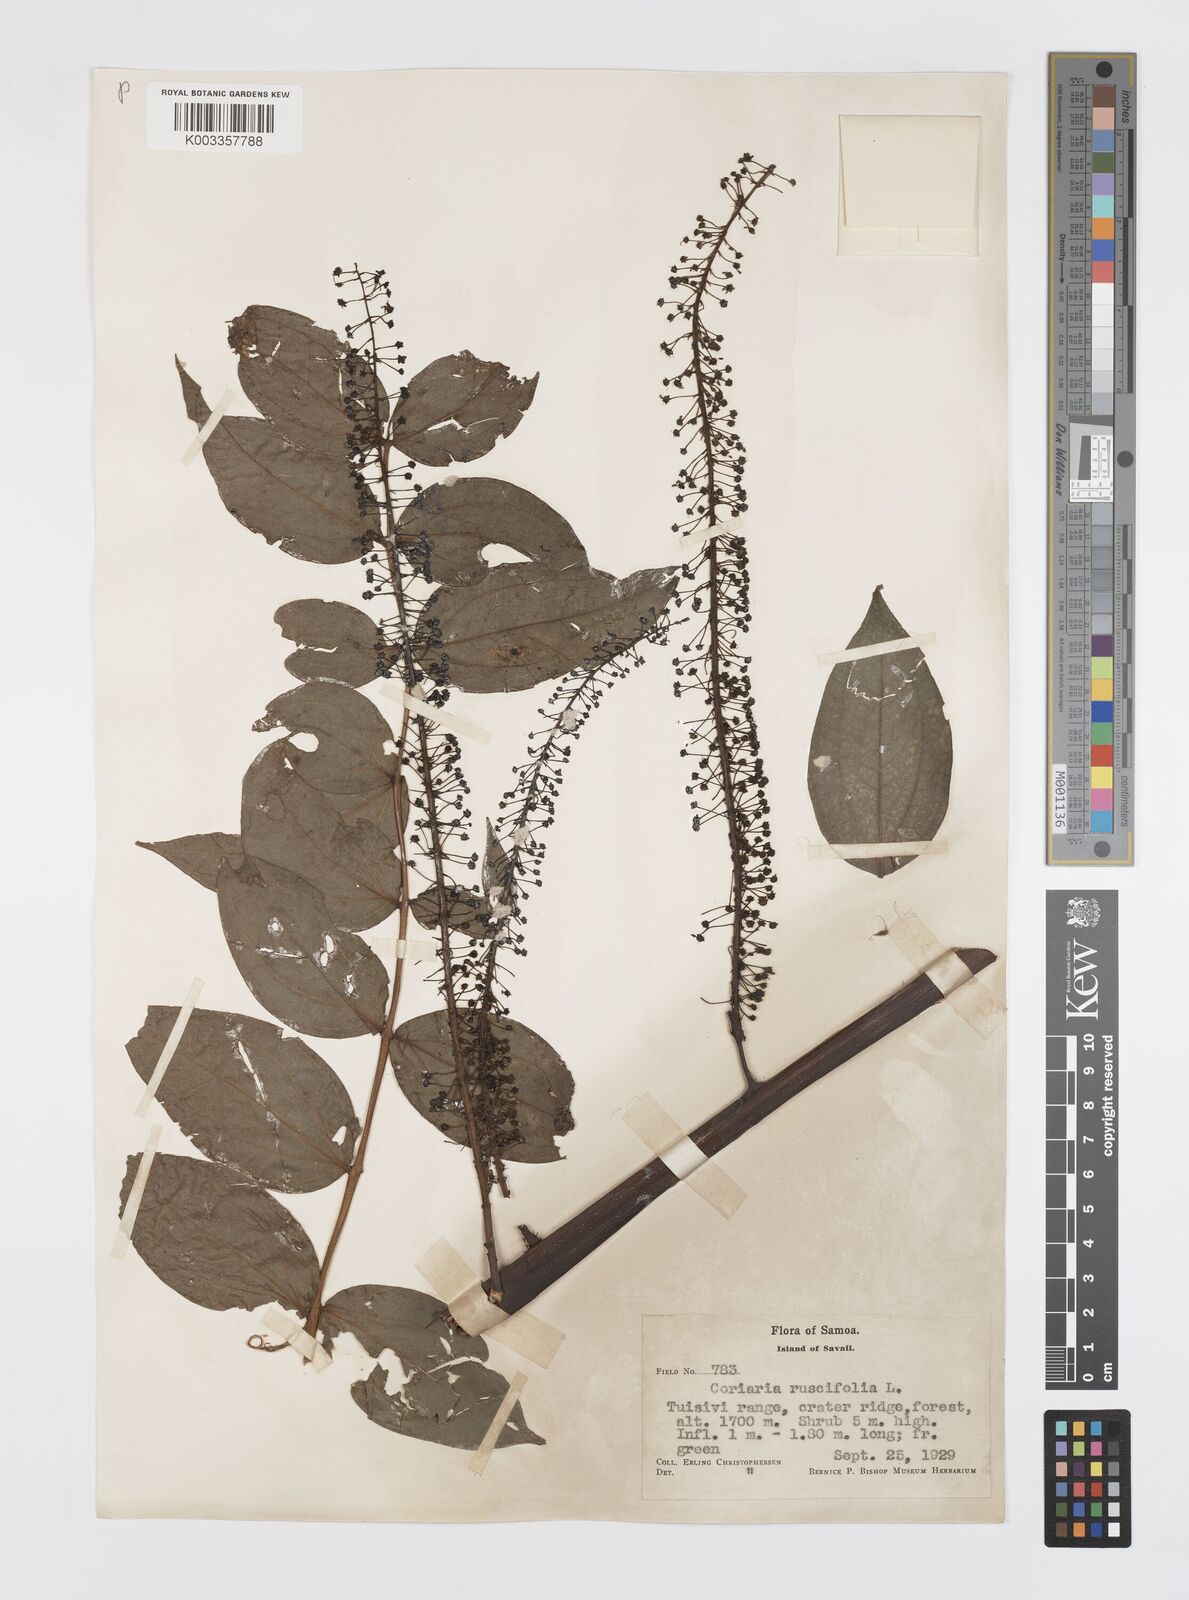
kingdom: Plantae
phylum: Tracheophyta
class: Magnoliopsida
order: Cucurbitales
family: Coriariaceae
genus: Coriaria
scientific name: Coriaria ruscifolia
